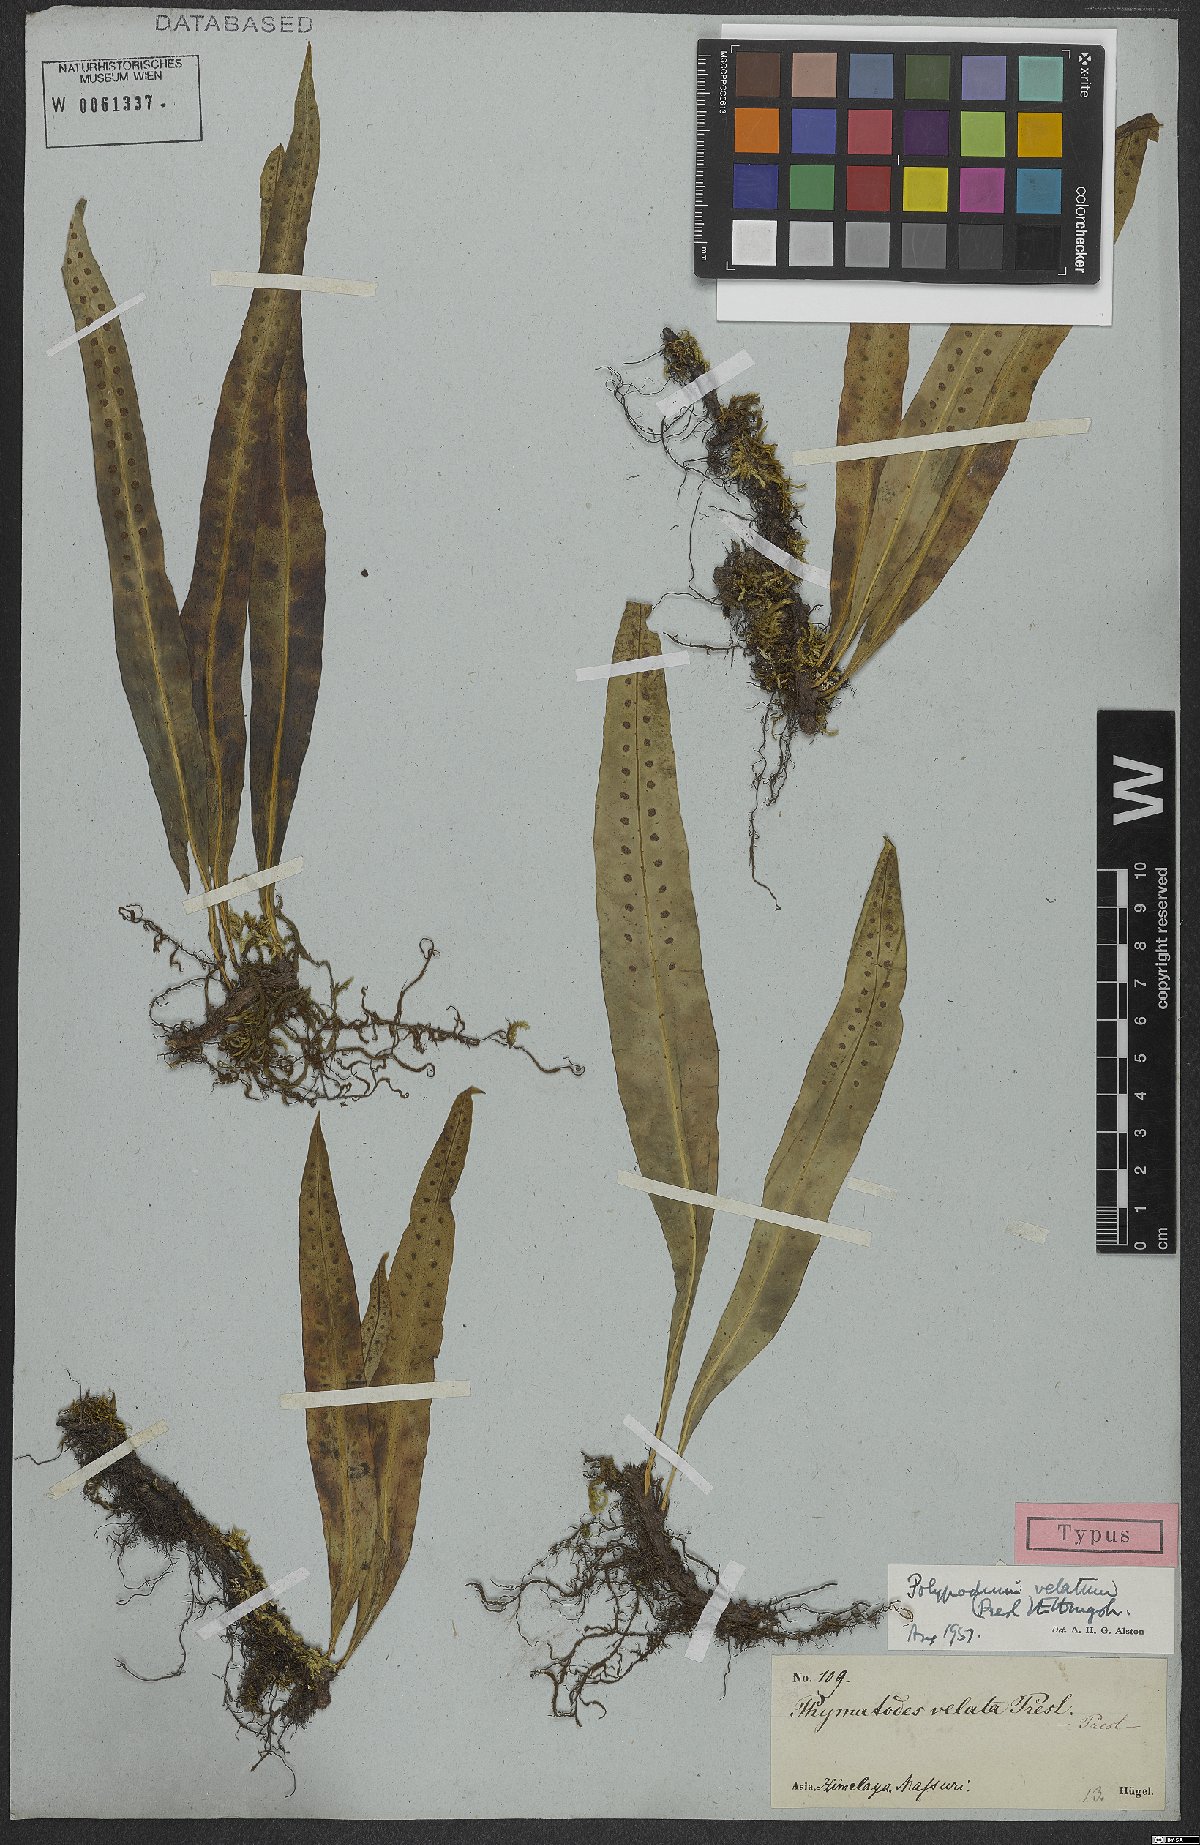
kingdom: Plantae
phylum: Tracheophyta
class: Polypodiopsida
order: Polypodiales
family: Polypodiaceae
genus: Polypodium
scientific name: Polypodium velatum
